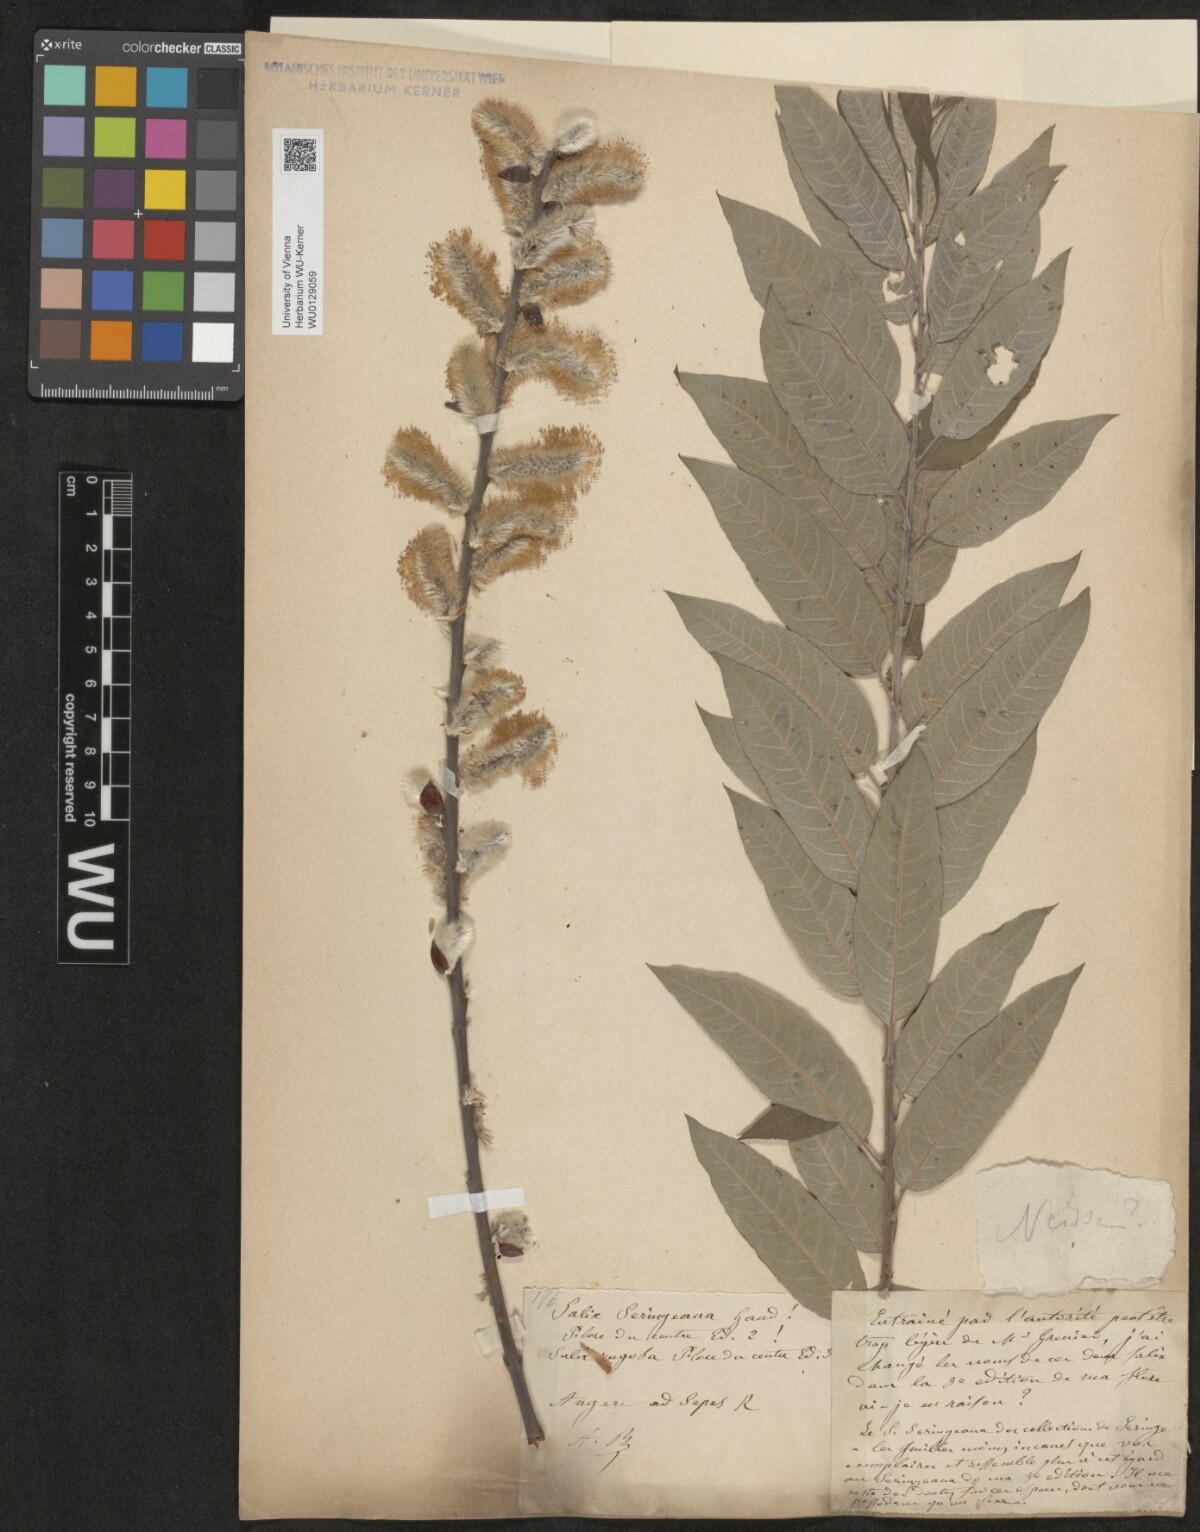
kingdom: Plantae
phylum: Tracheophyta
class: Magnoliopsida
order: Malpighiales
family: Salicaceae
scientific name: Salicaceae
